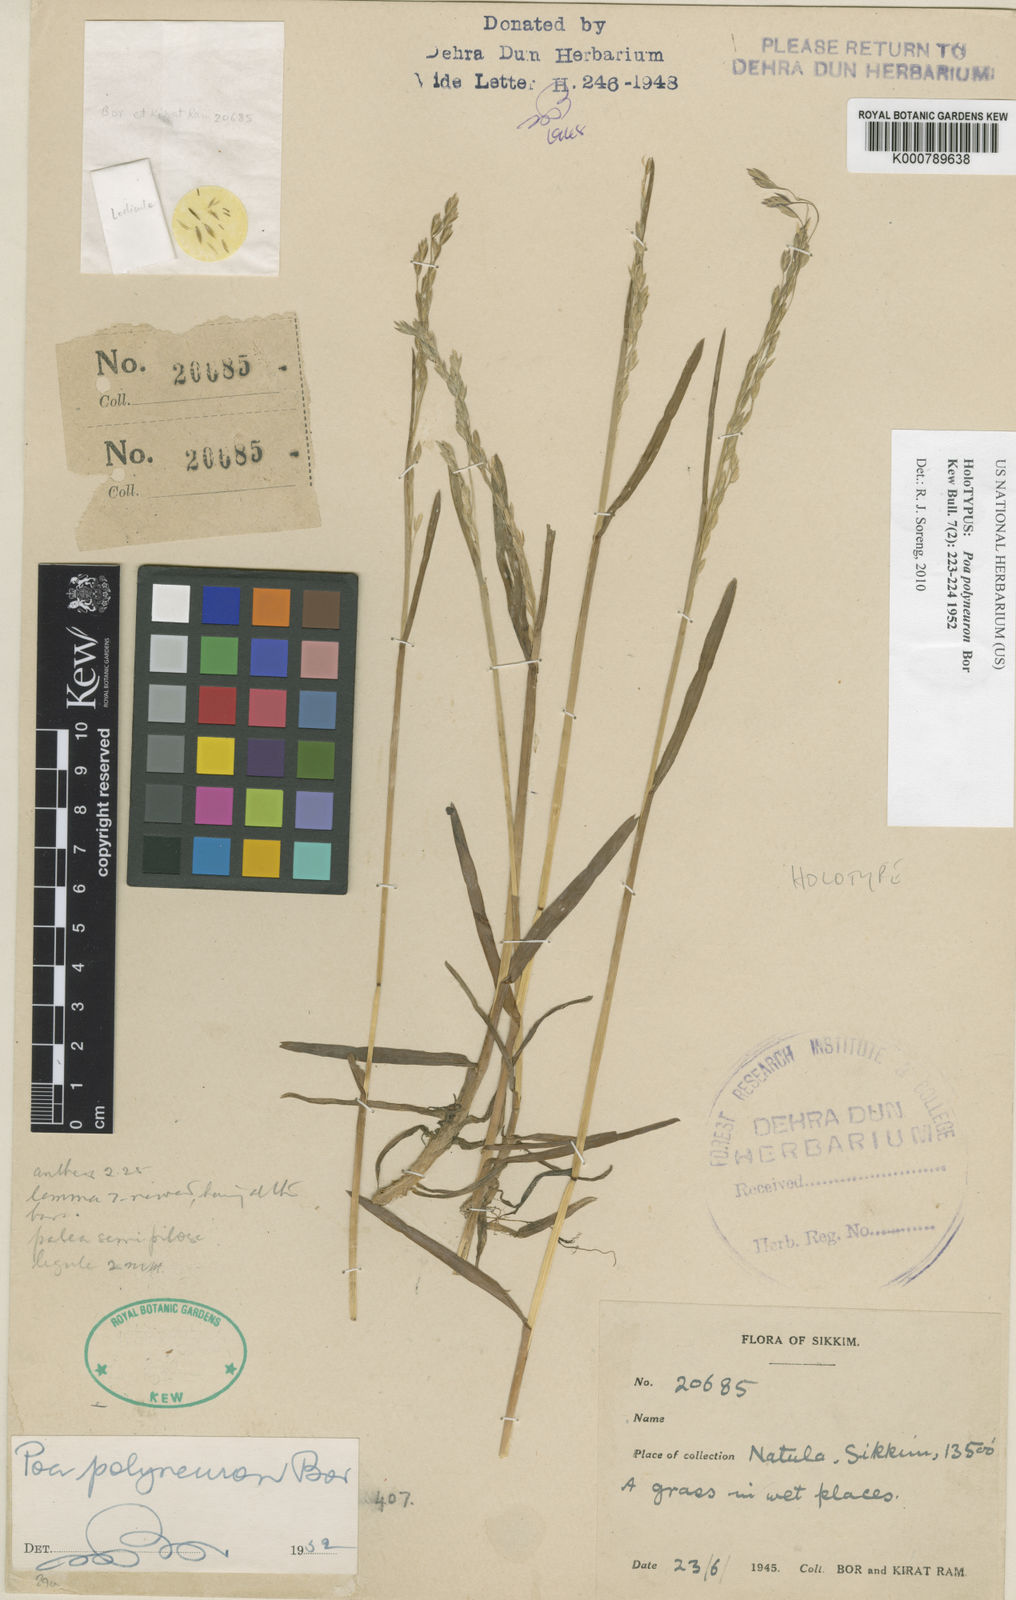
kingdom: Plantae
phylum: Tracheophyta
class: Liliopsida
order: Poales
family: Poaceae
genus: Poa
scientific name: Poa polyneura
